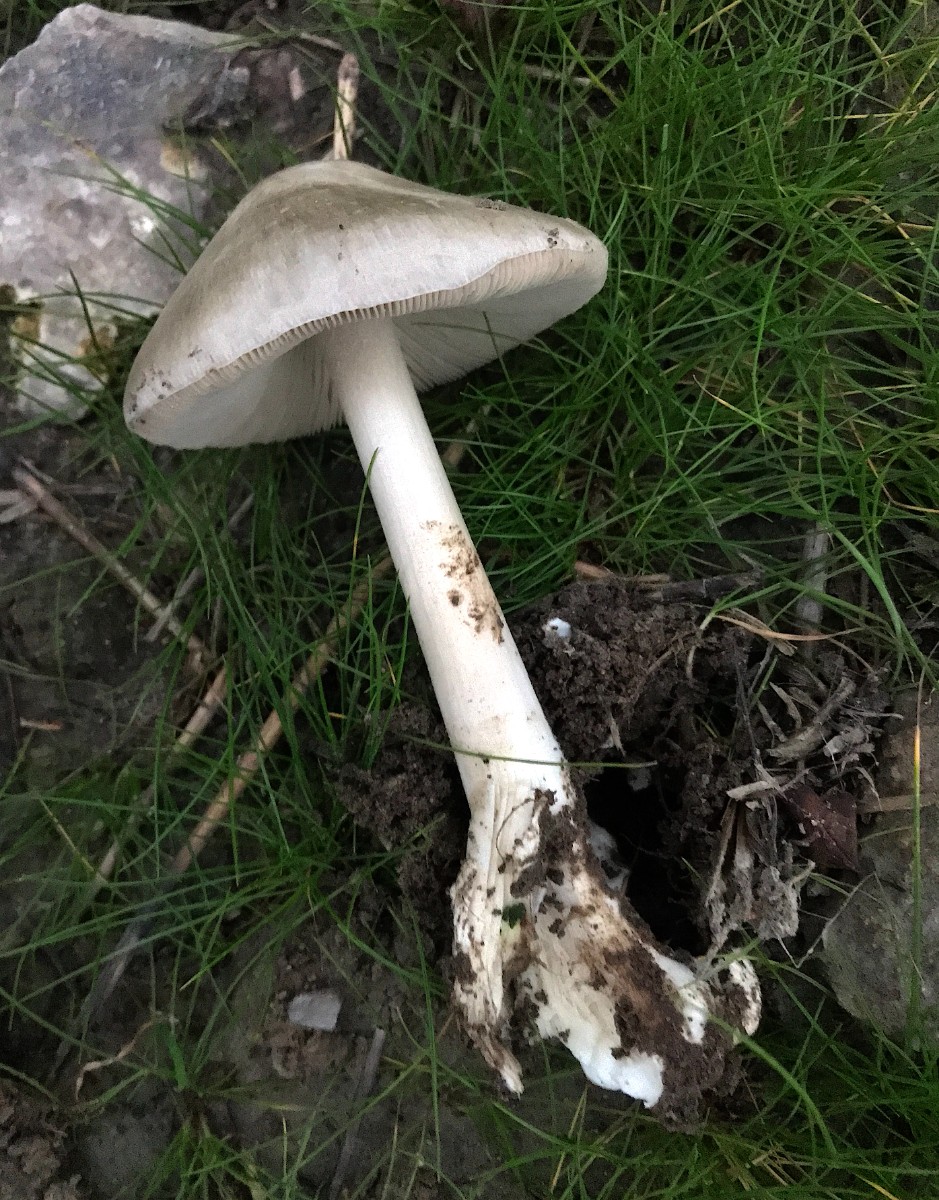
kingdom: Fungi
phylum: Basidiomycota
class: Agaricomycetes
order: Agaricales
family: Pluteaceae
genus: Volvopluteus
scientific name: Volvopluteus gloiocephalus
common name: høj posesvamp
